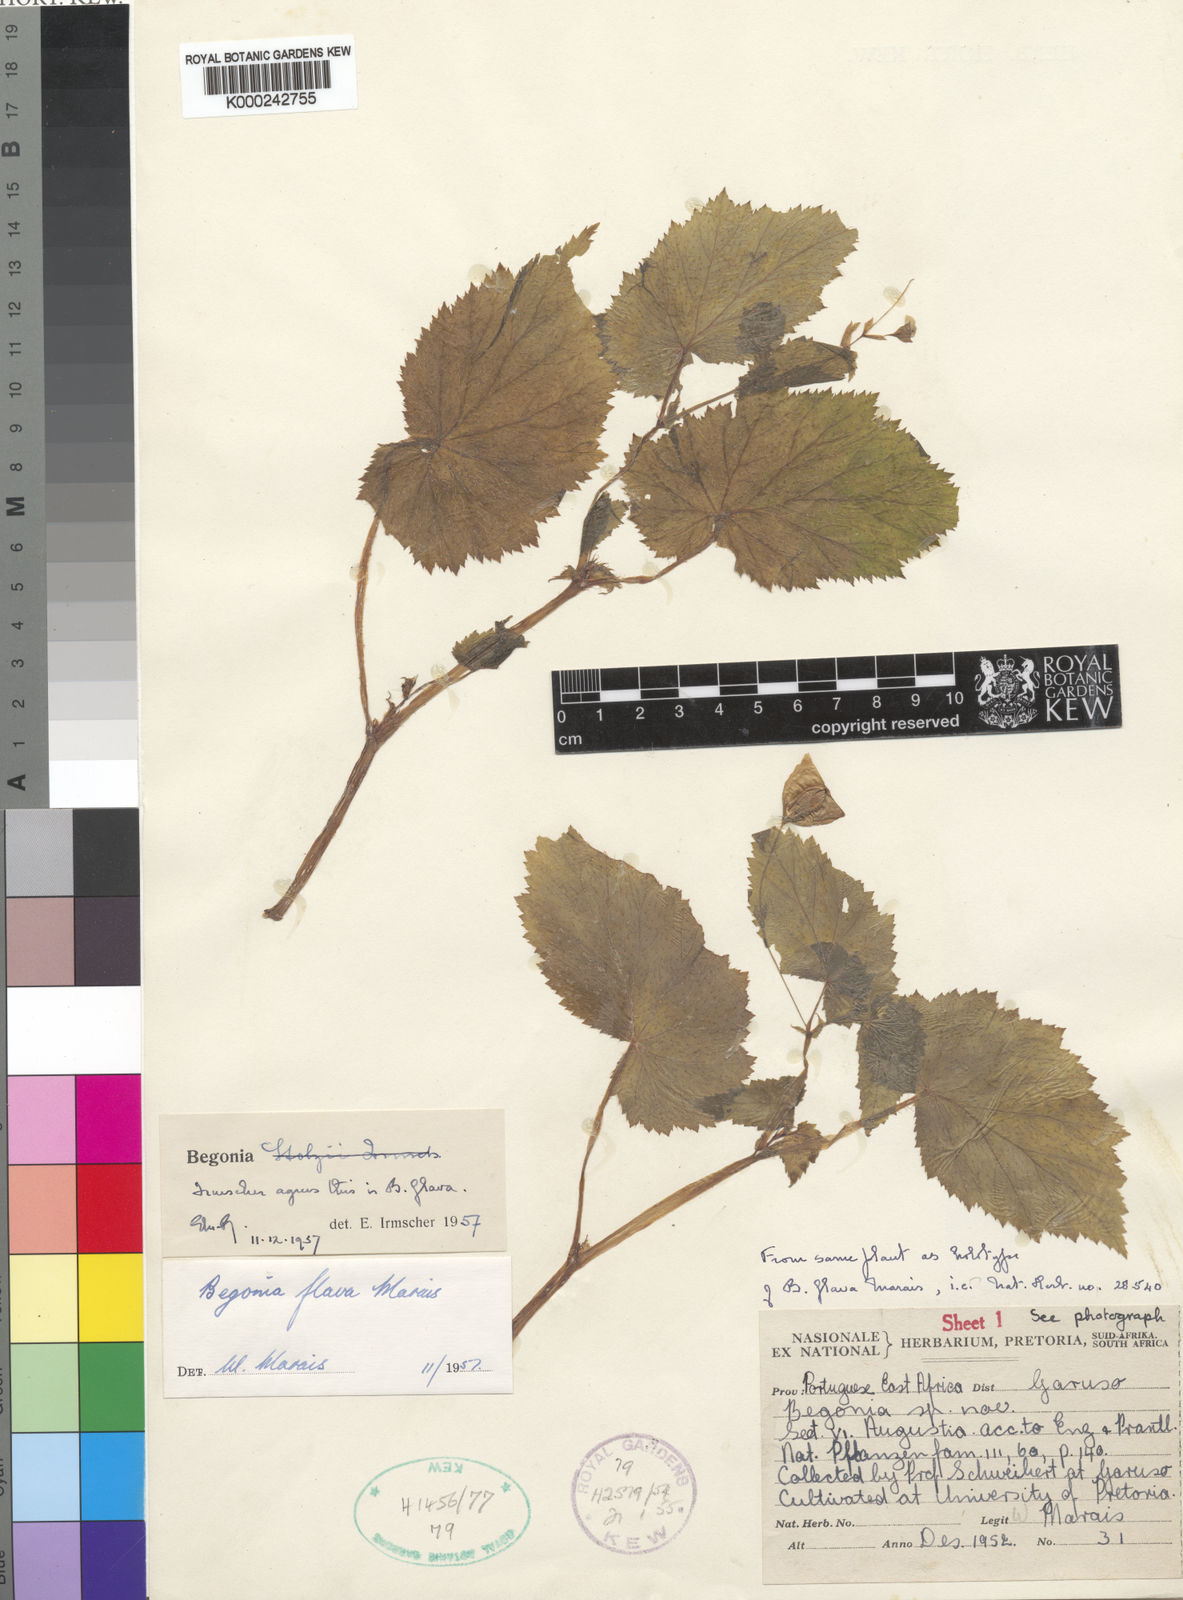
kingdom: Plantae
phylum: Tracheophyta
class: Magnoliopsida
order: Cucurbitales
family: Begoniaceae
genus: Begonia
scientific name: Begonia sutherlandii
